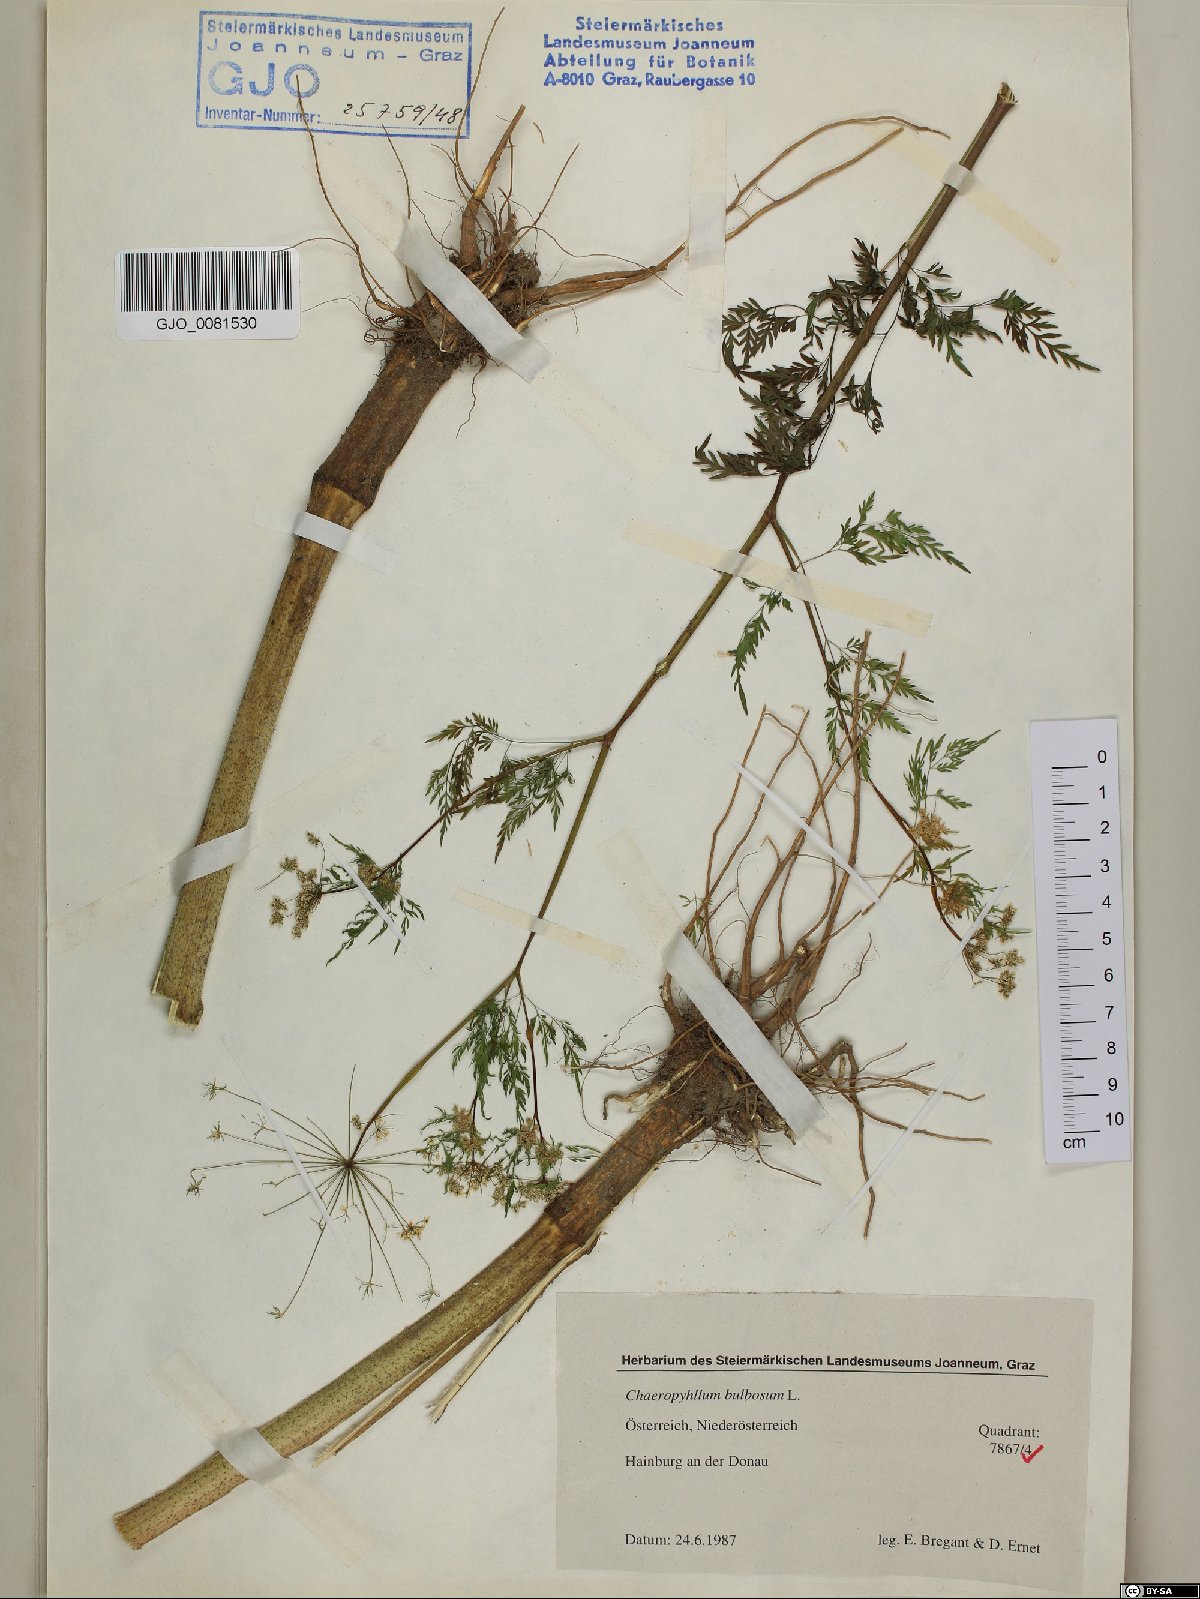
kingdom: Plantae
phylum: Tracheophyta
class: Magnoliopsida
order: Apiales
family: Apiaceae
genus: Chaerophyllum
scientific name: Chaerophyllum bulbosum
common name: Bulbous chervil
